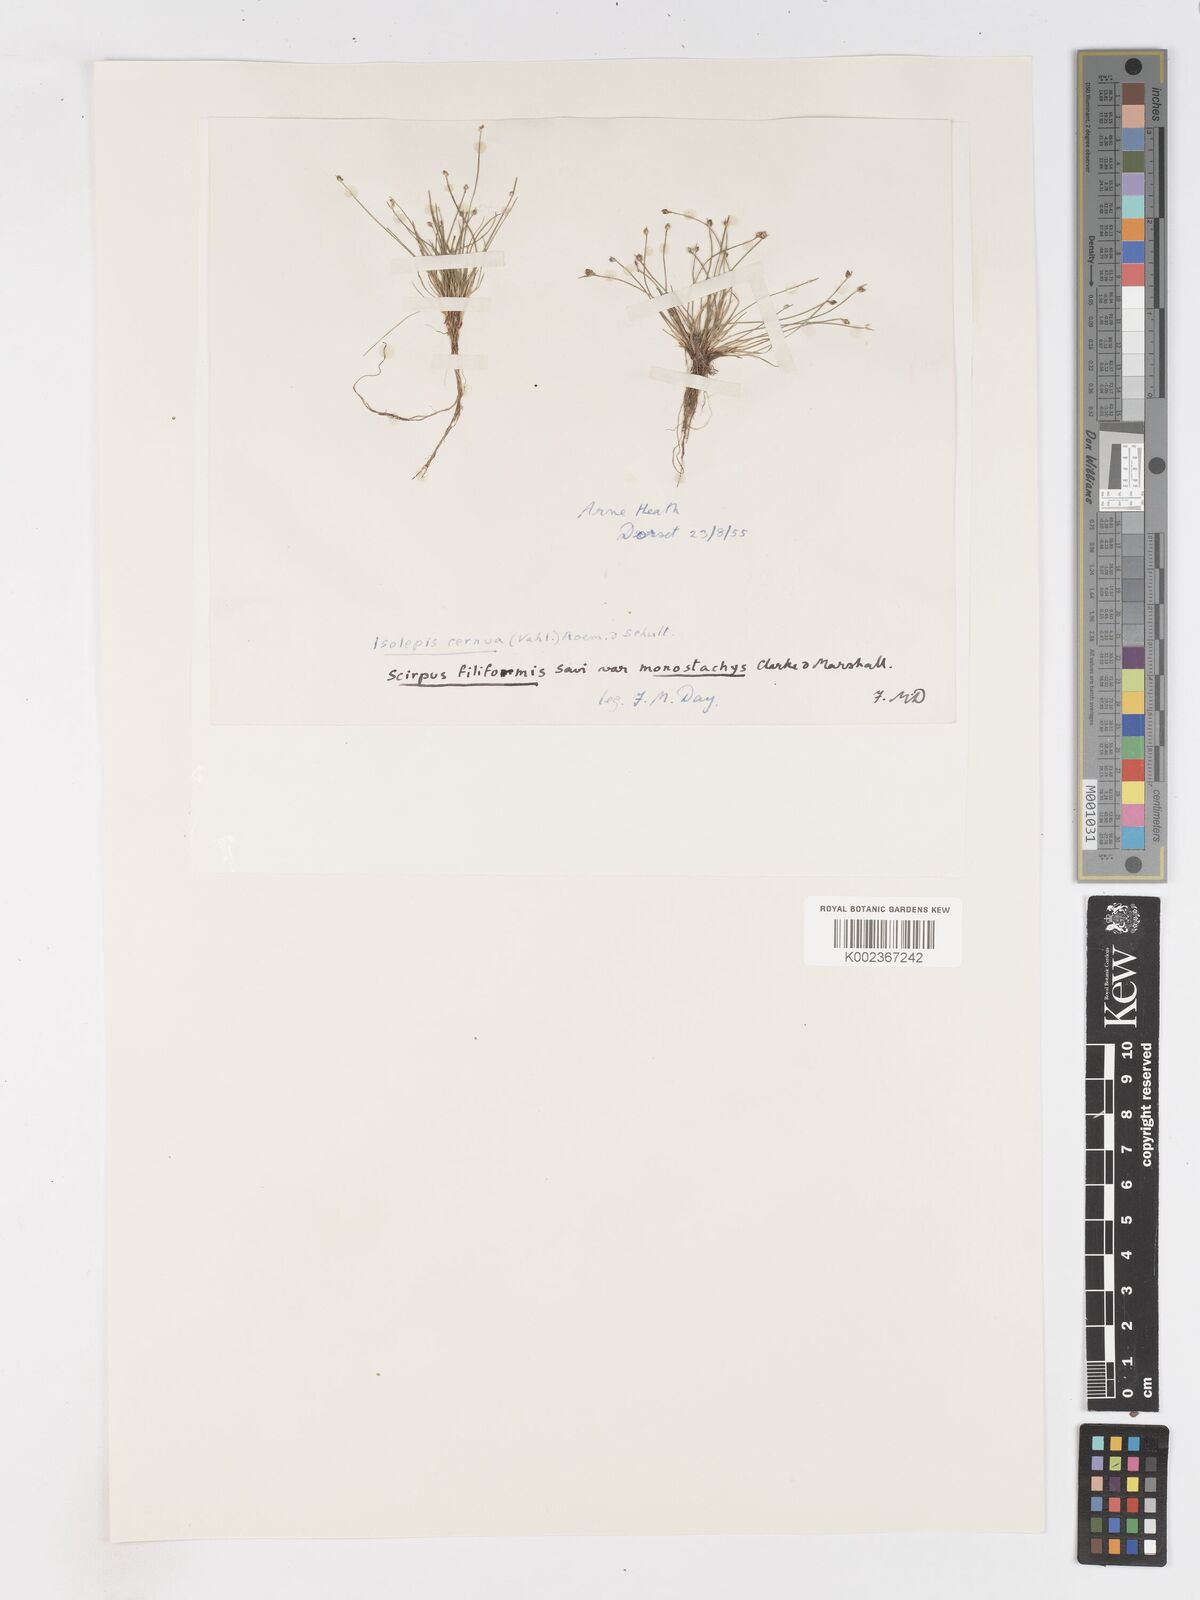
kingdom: Plantae
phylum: Tracheophyta
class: Liliopsida
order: Poales
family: Cyperaceae
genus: Isolepis
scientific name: Isolepis cernua
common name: Slender club-rush
